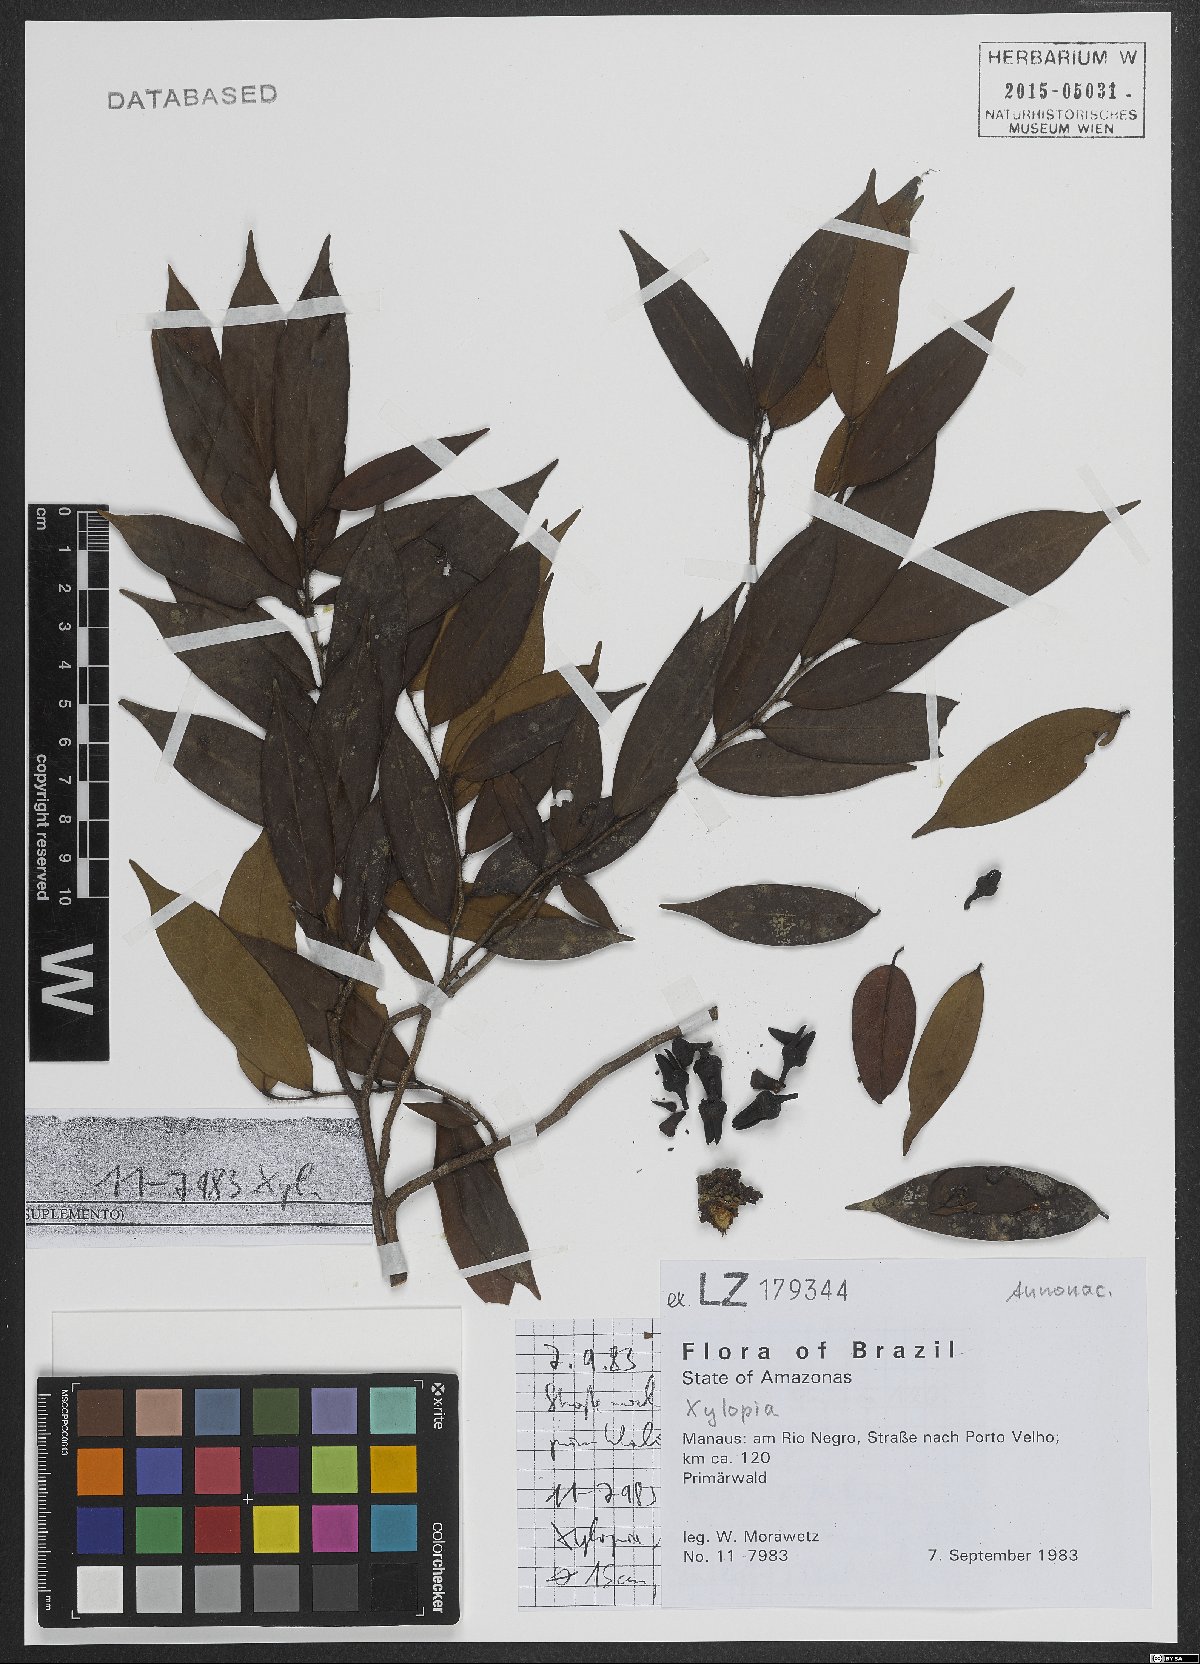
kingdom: Plantae
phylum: Tracheophyta
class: Magnoliopsida
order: Magnoliales
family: Annonaceae
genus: Xylopia
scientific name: Xylopia
